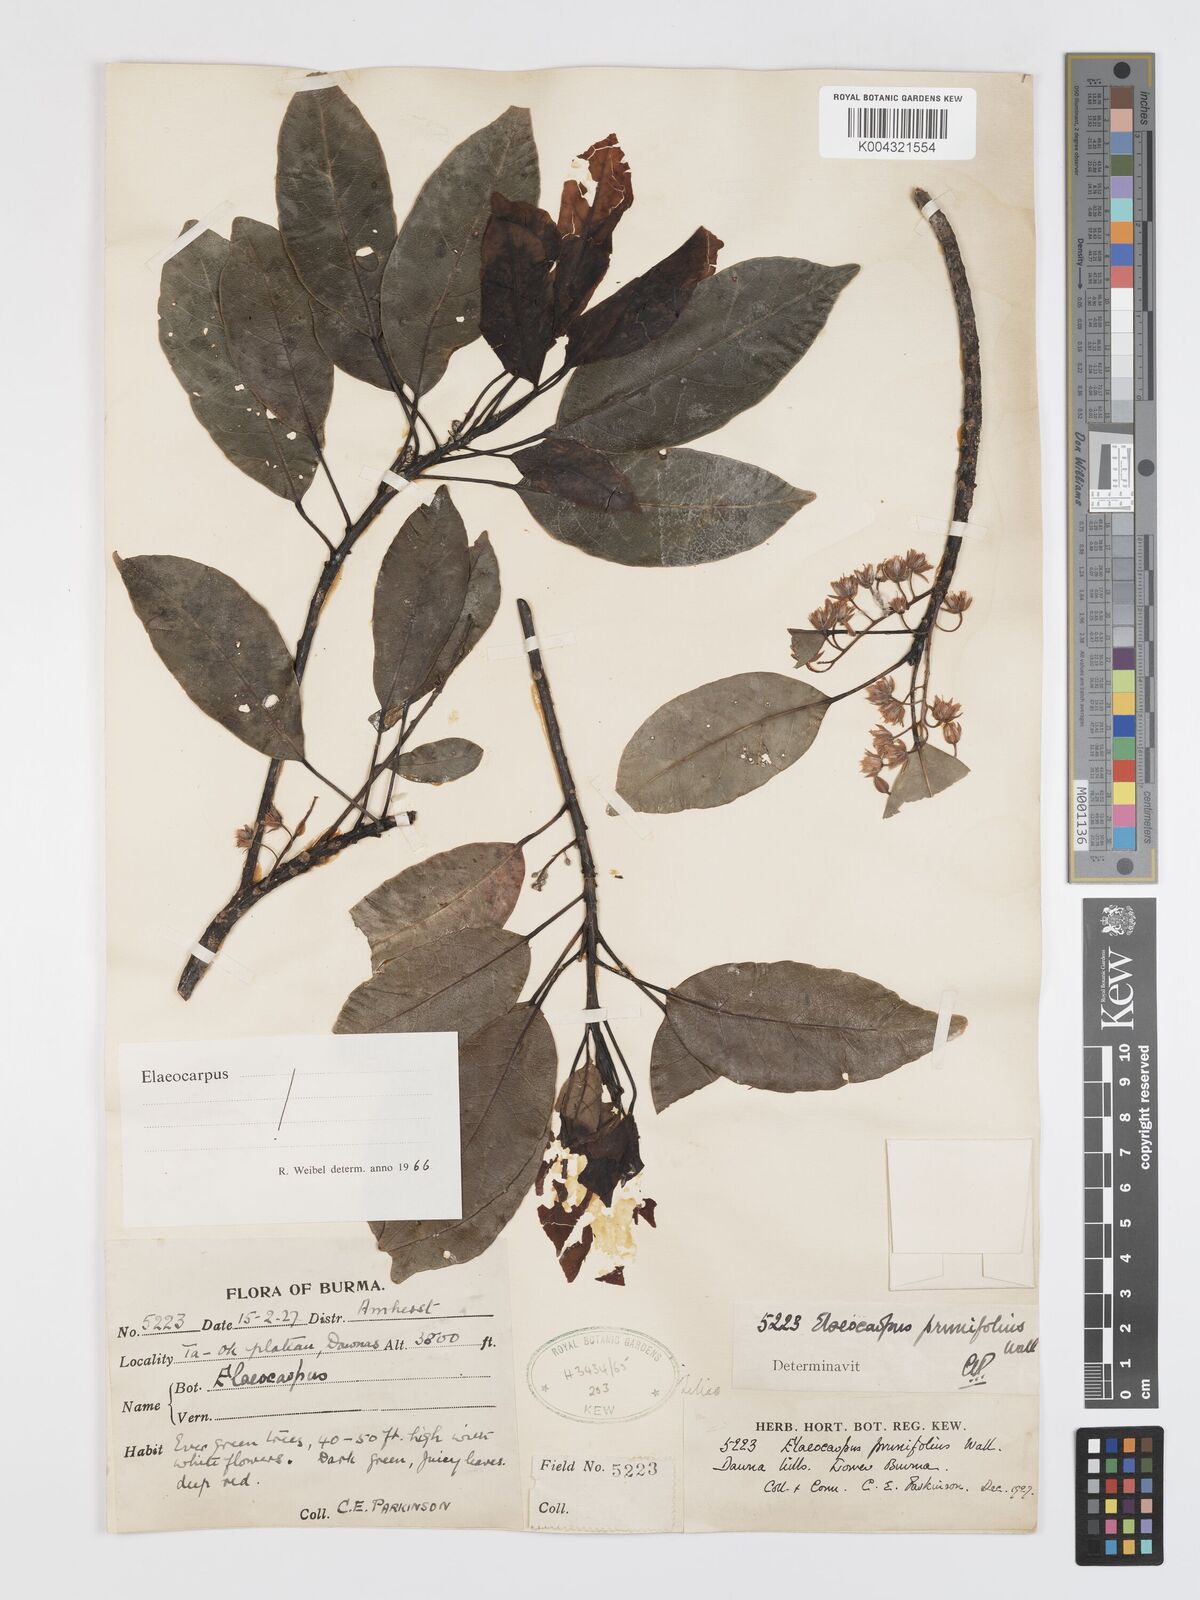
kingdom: Plantae
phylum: Tracheophyta
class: Magnoliopsida
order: Oxalidales
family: Elaeocarpaceae
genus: Elaeocarpus
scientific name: Elaeocarpus prunifolius
